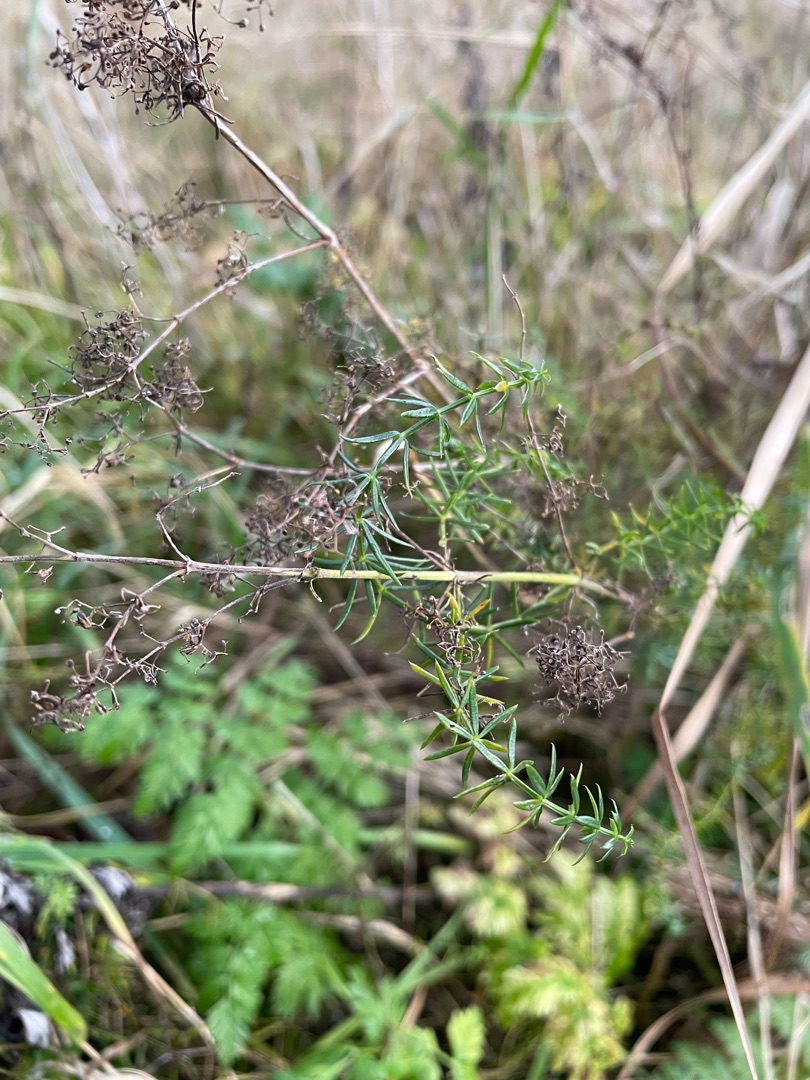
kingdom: Plantae
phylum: Tracheophyta
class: Magnoliopsida
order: Gentianales
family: Rubiaceae
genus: Galium
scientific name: Galium verum
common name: Gul snerre
